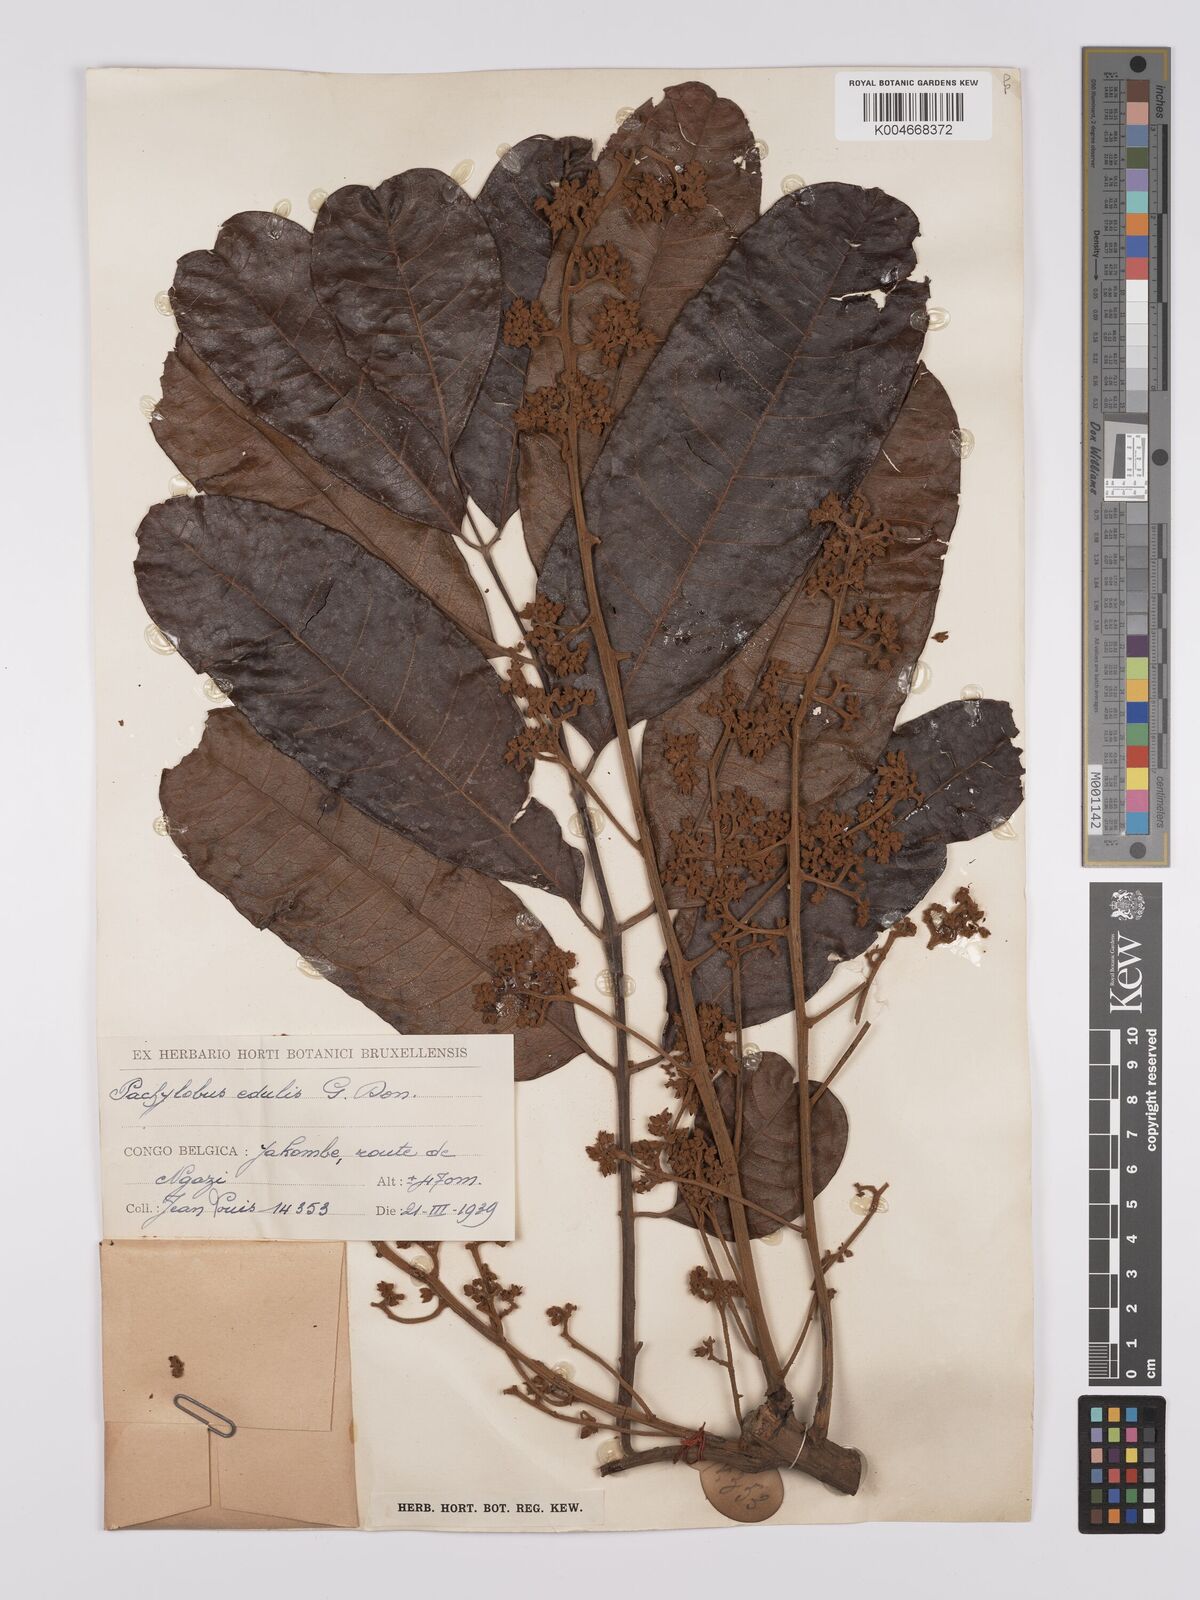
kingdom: Plantae
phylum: Tracheophyta
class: Magnoliopsida
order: Sapindales
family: Burseraceae
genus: Pachylobus
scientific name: Pachylobus edulis
